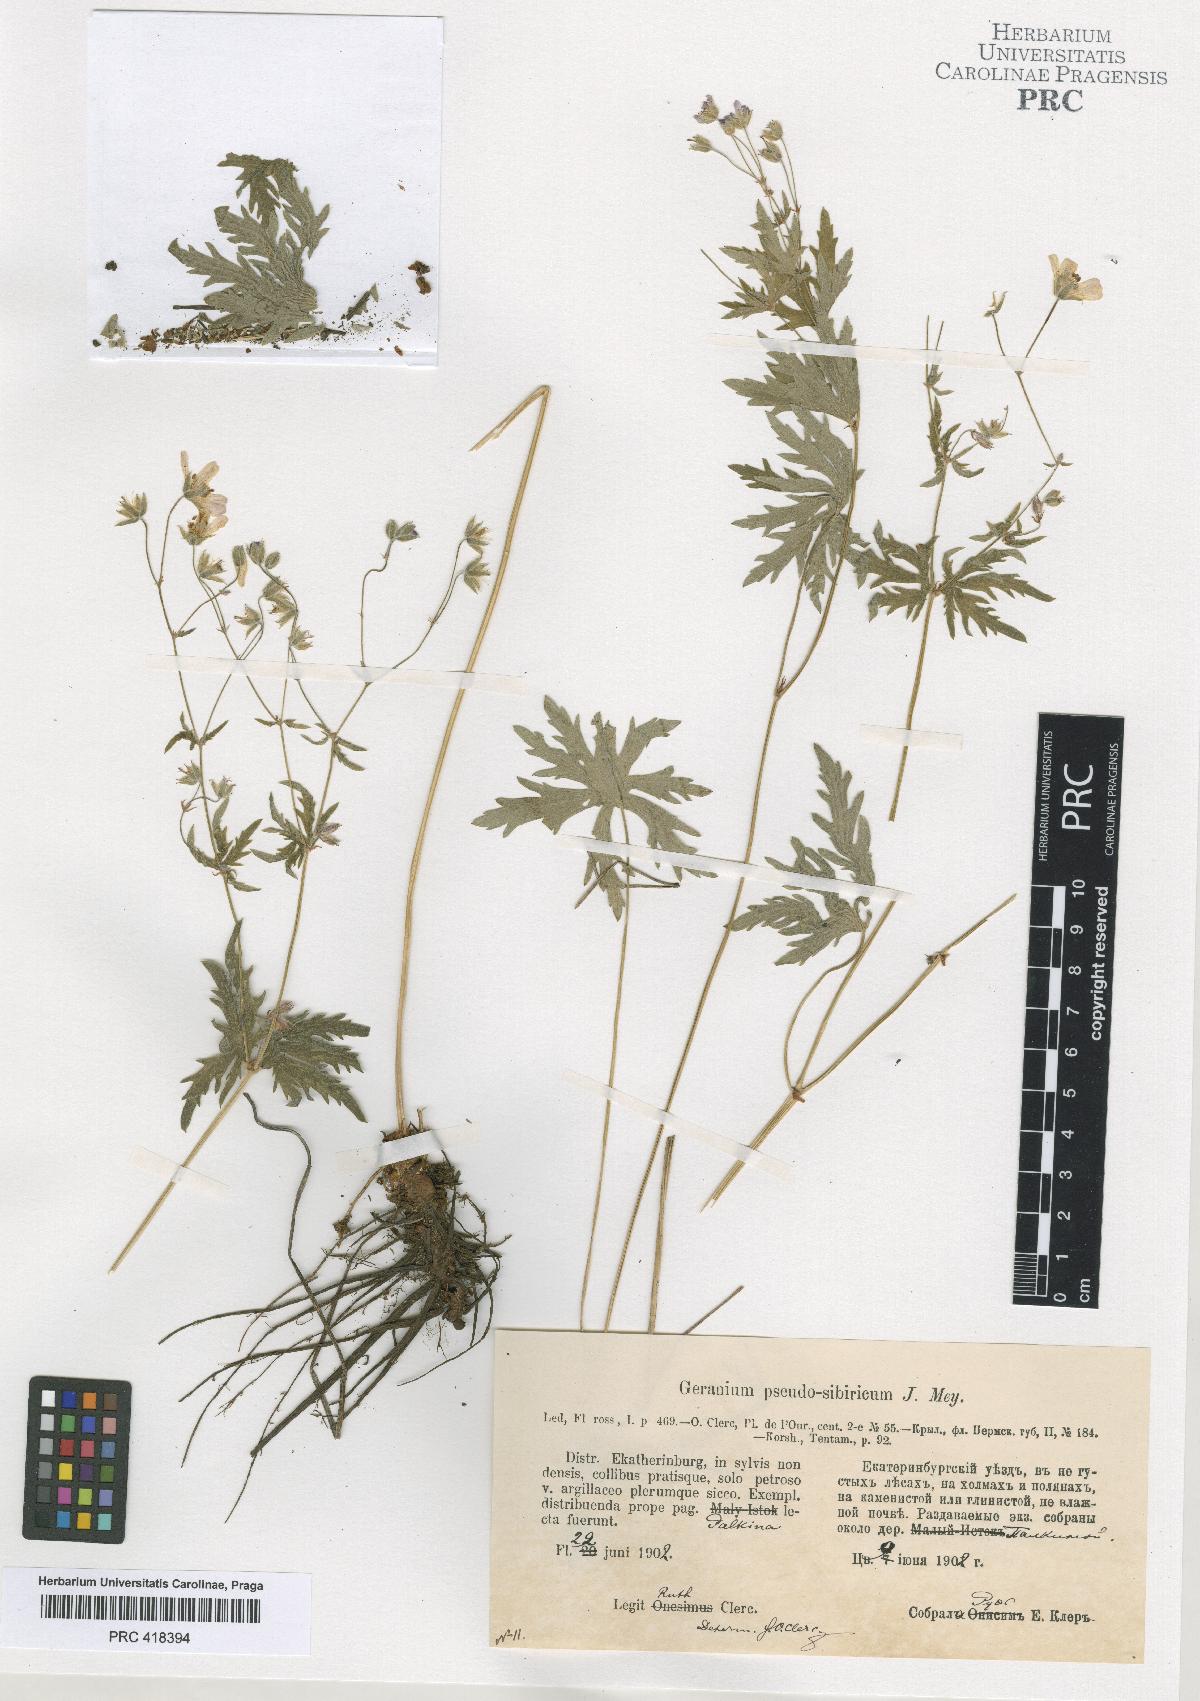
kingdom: Plantae
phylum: Tracheophyta
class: Magnoliopsida
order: Geraniales
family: Geraniaceae
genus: Geranium
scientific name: Geranium pseudosibiricum
